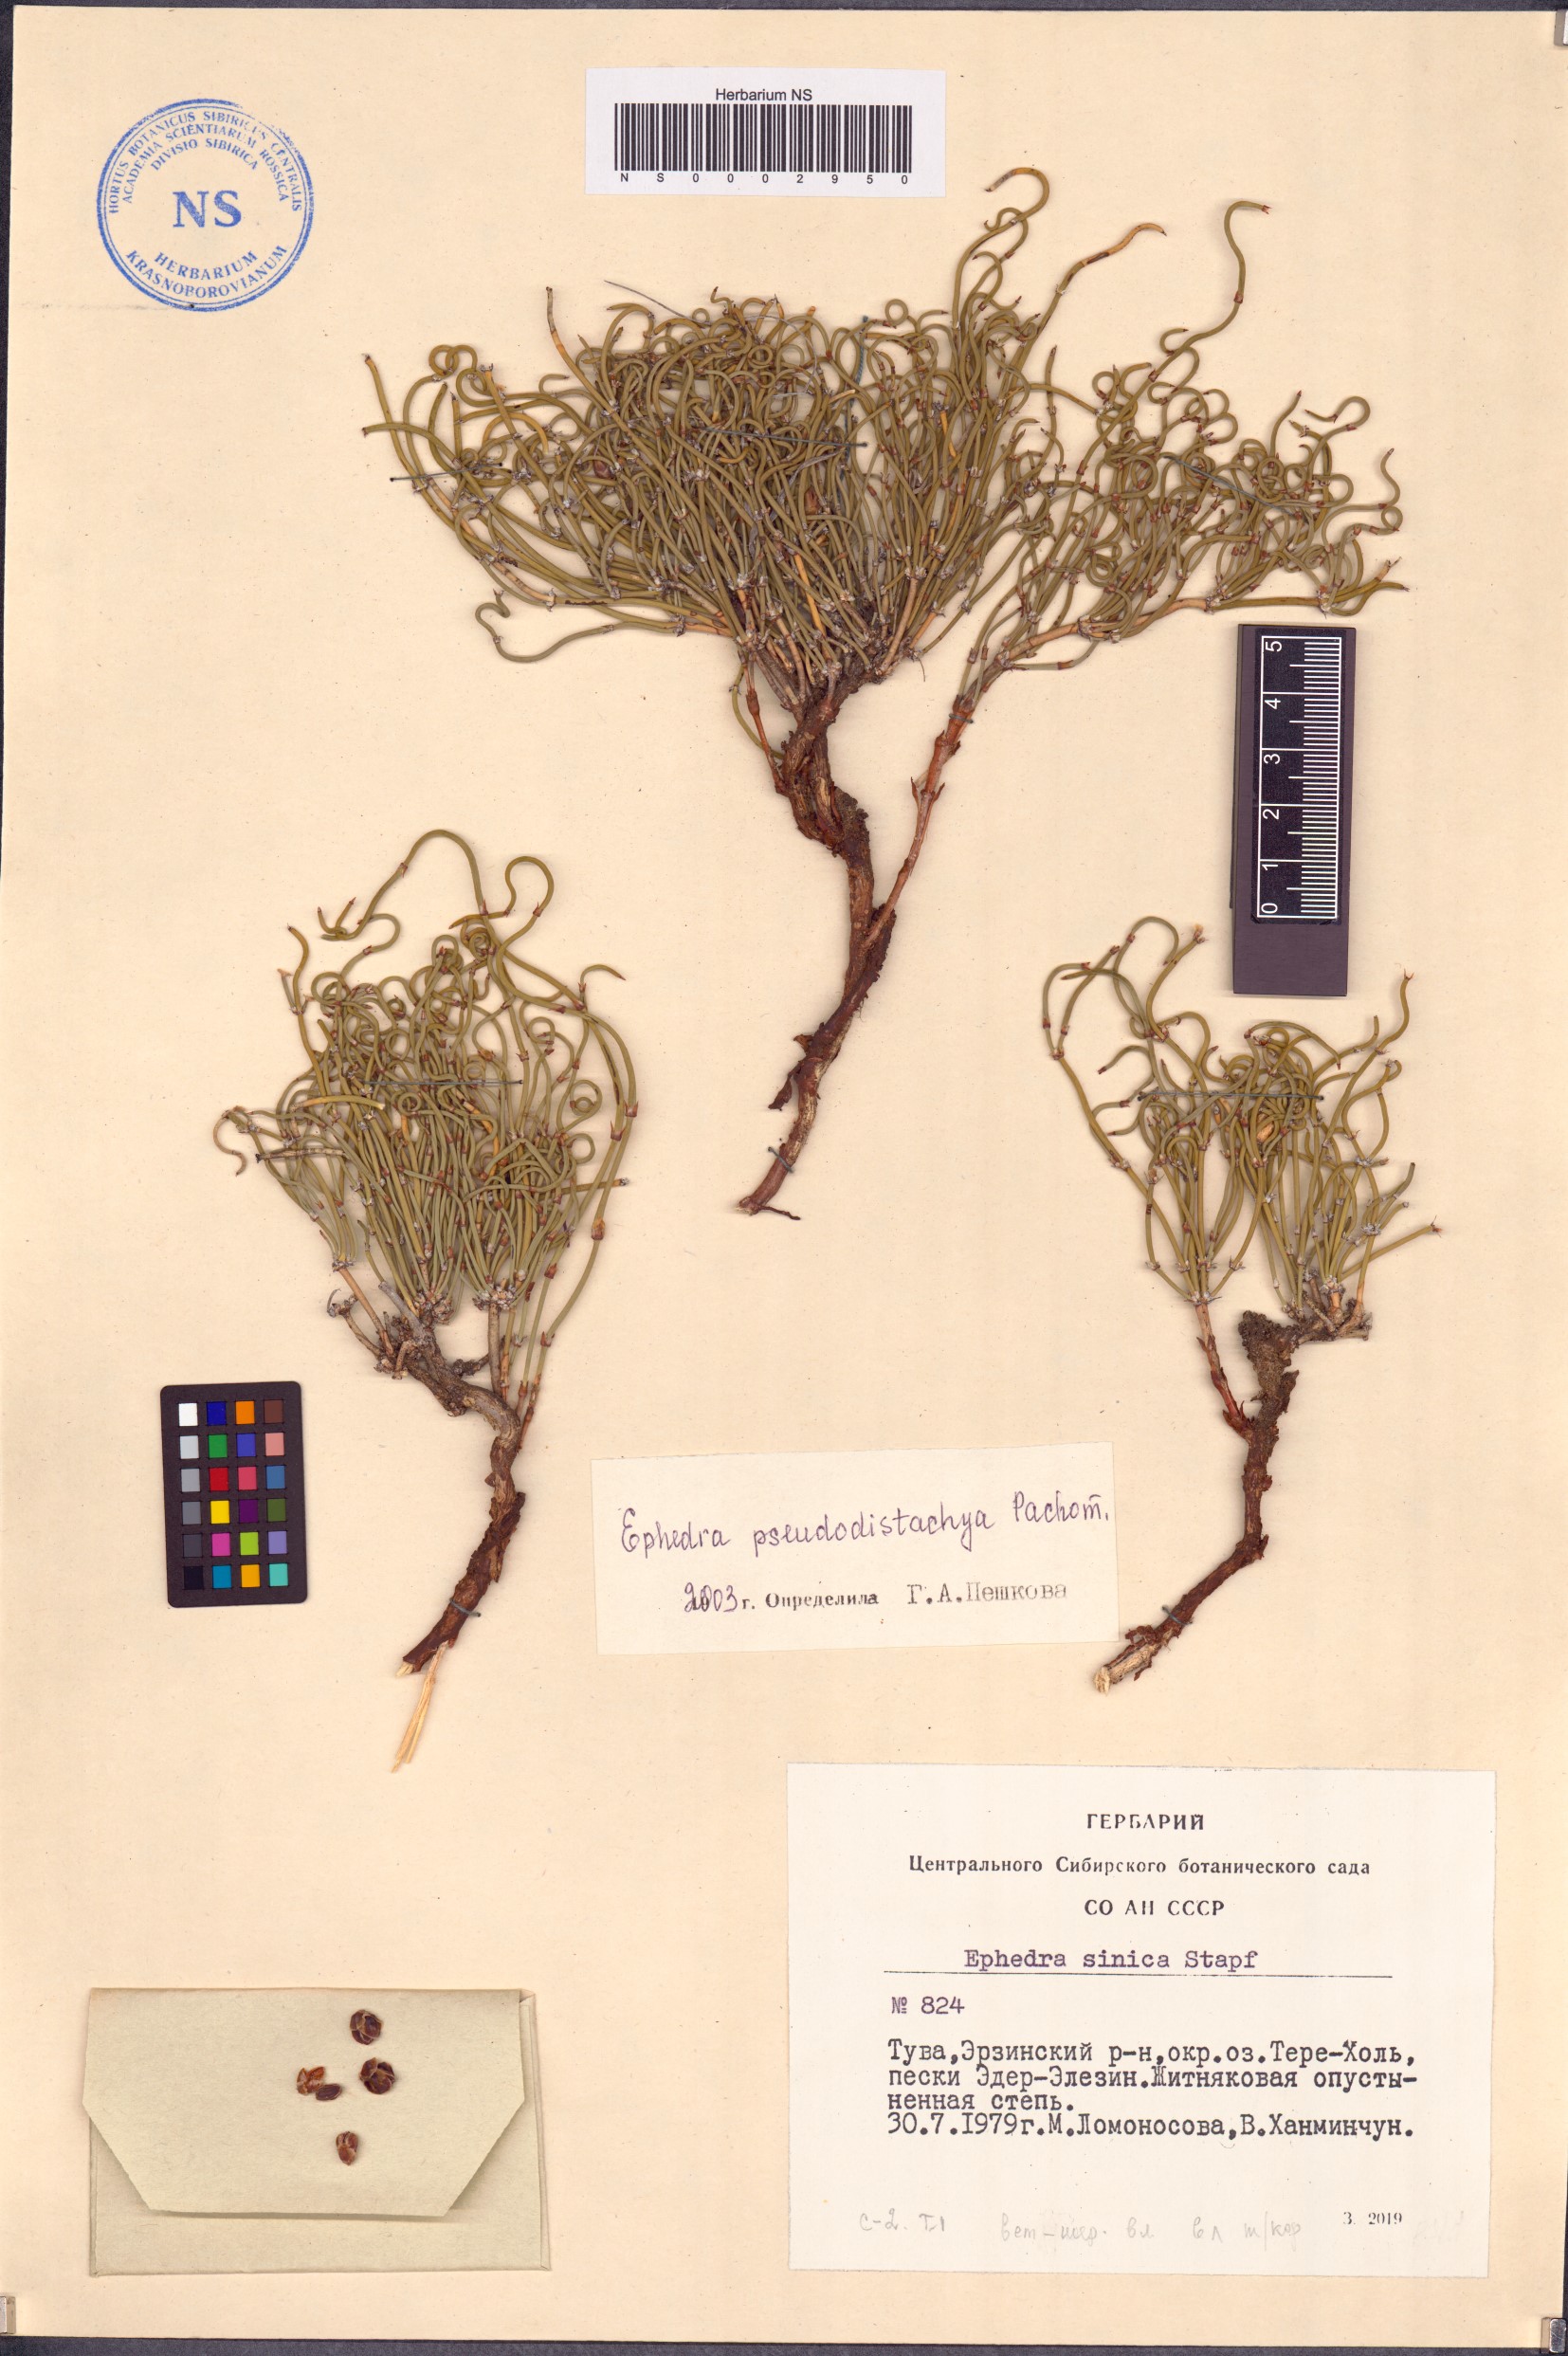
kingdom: Plantae
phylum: Tracheophyta
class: Gnetopsida
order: Ephedrales
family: Ephedraceae
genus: Ephedra
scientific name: Ephedra pseudodistachya
